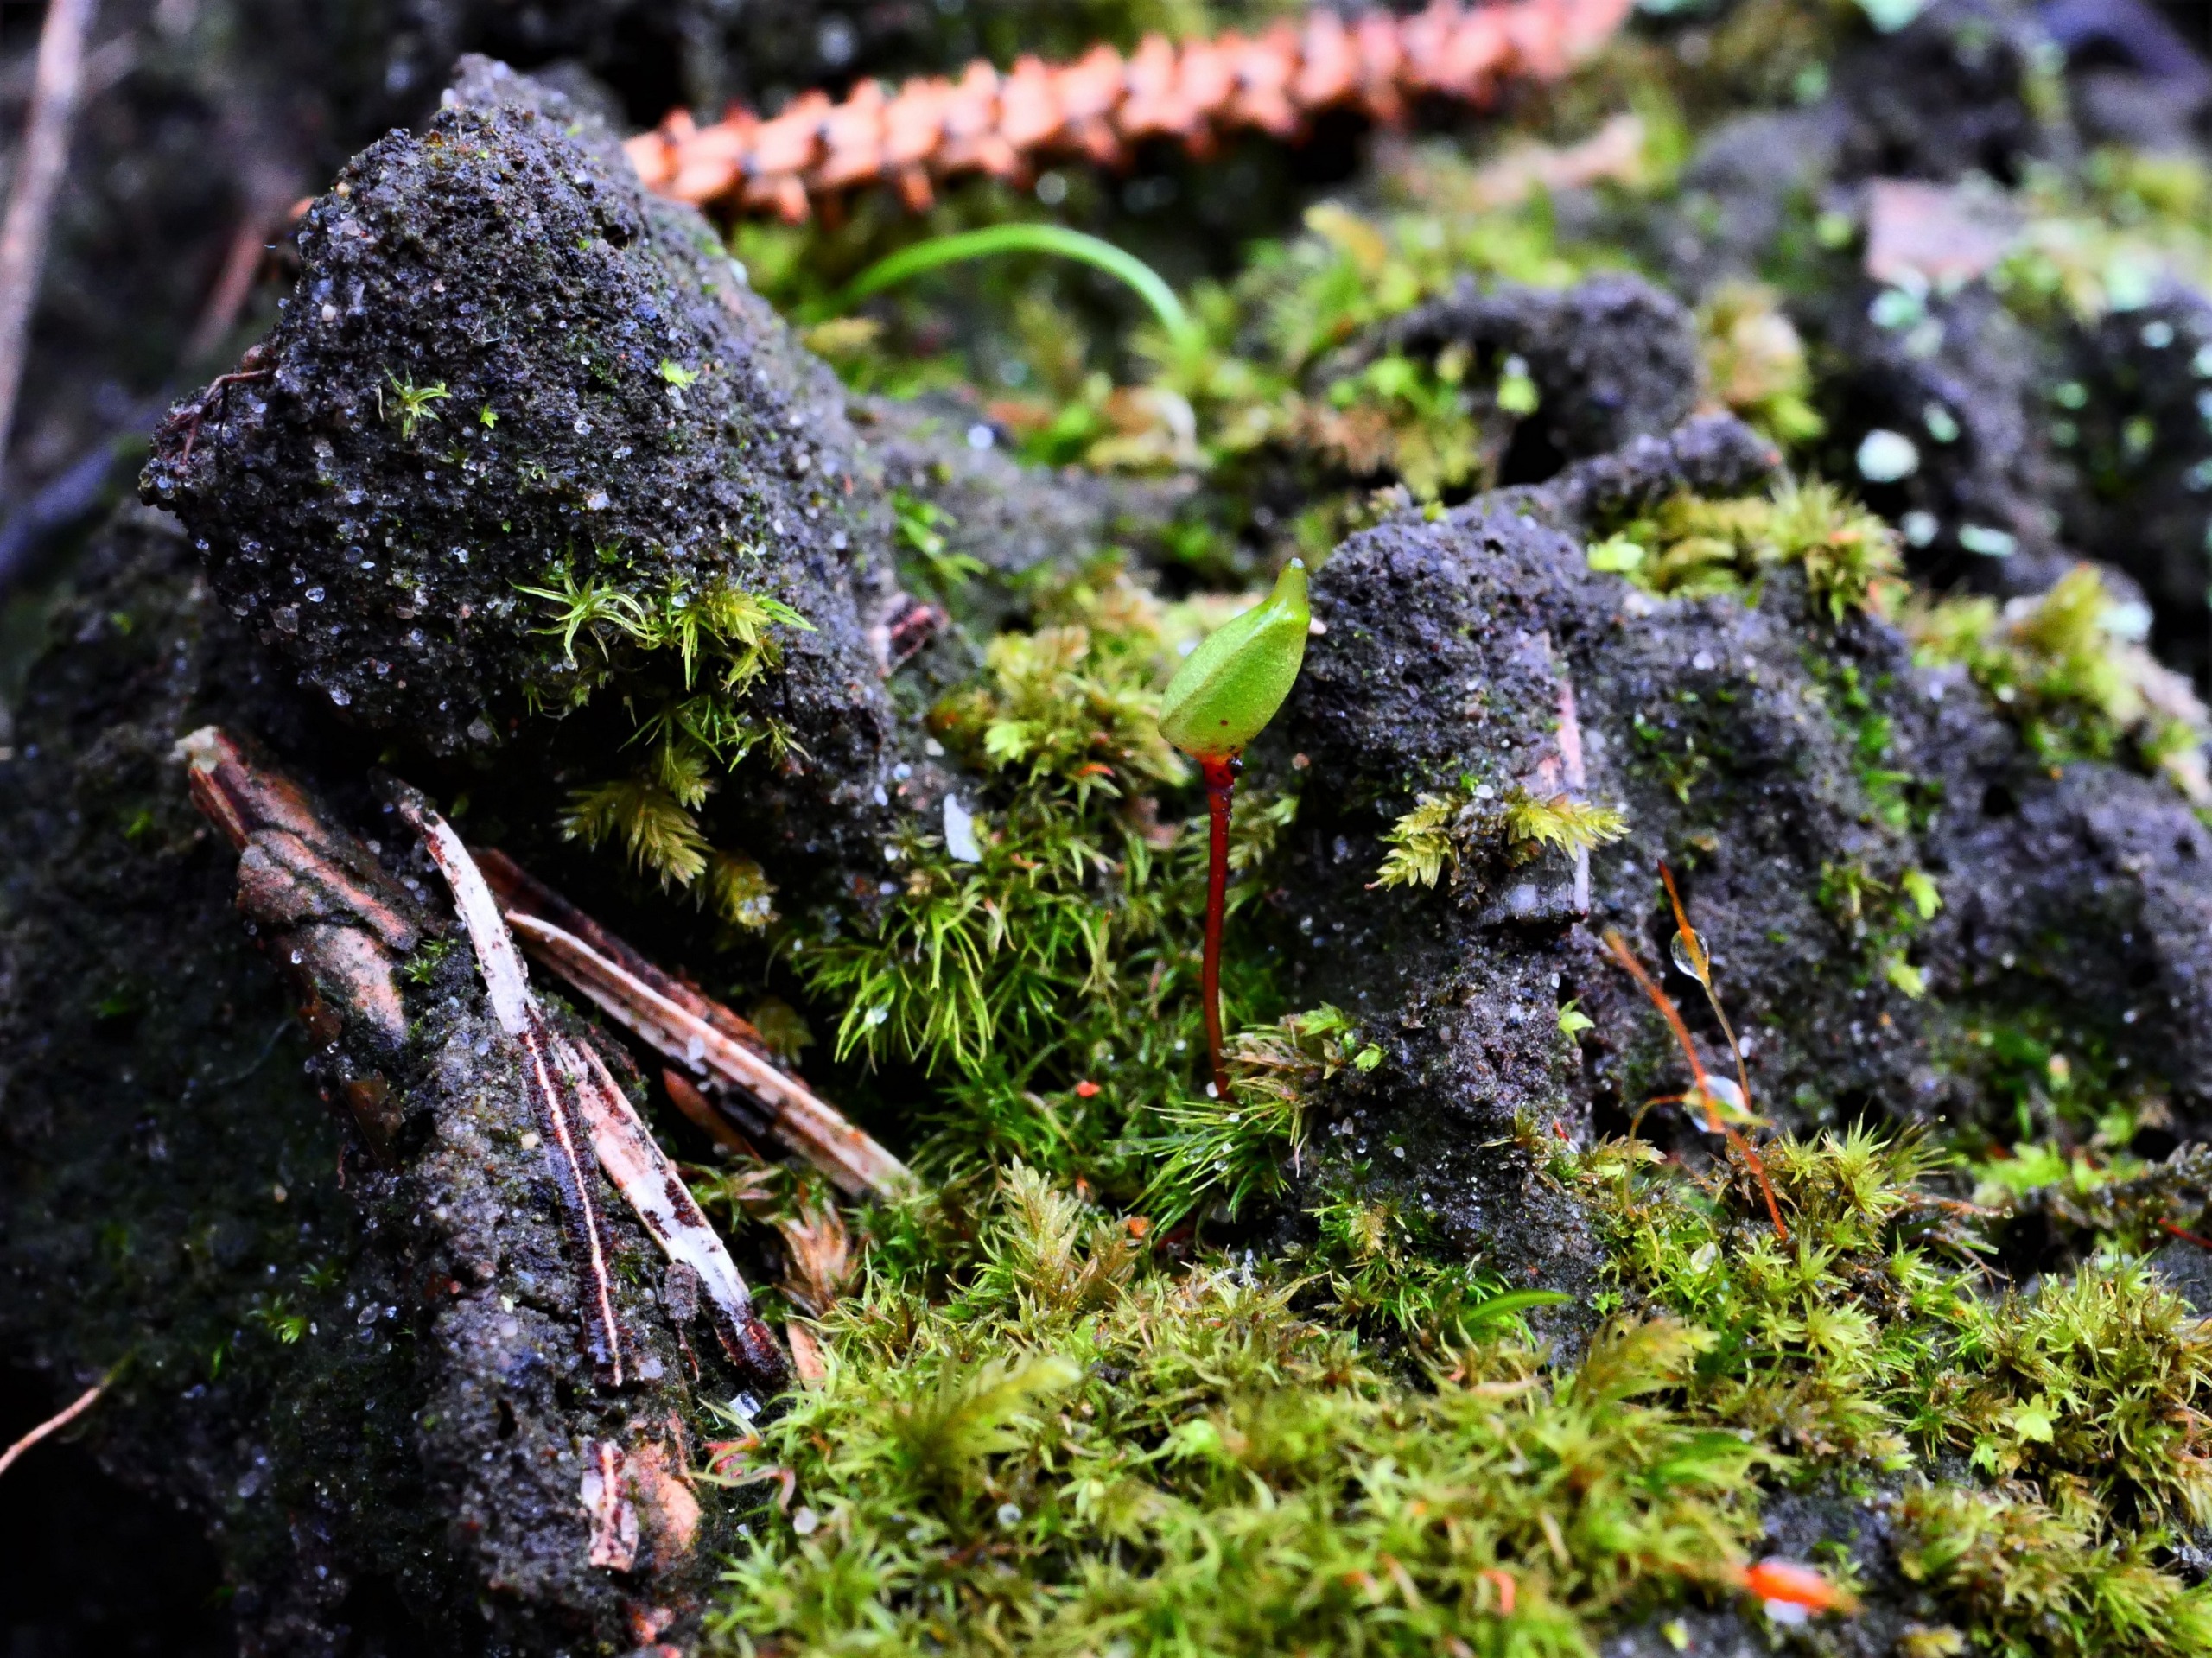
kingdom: Plantae
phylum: Bryophyta
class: Bryopsida
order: Buxbaumiales
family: Buxbaumiaceae
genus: Buxbaumia
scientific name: Buxbaumia aphylla
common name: Rundkapslet buxbaumia
